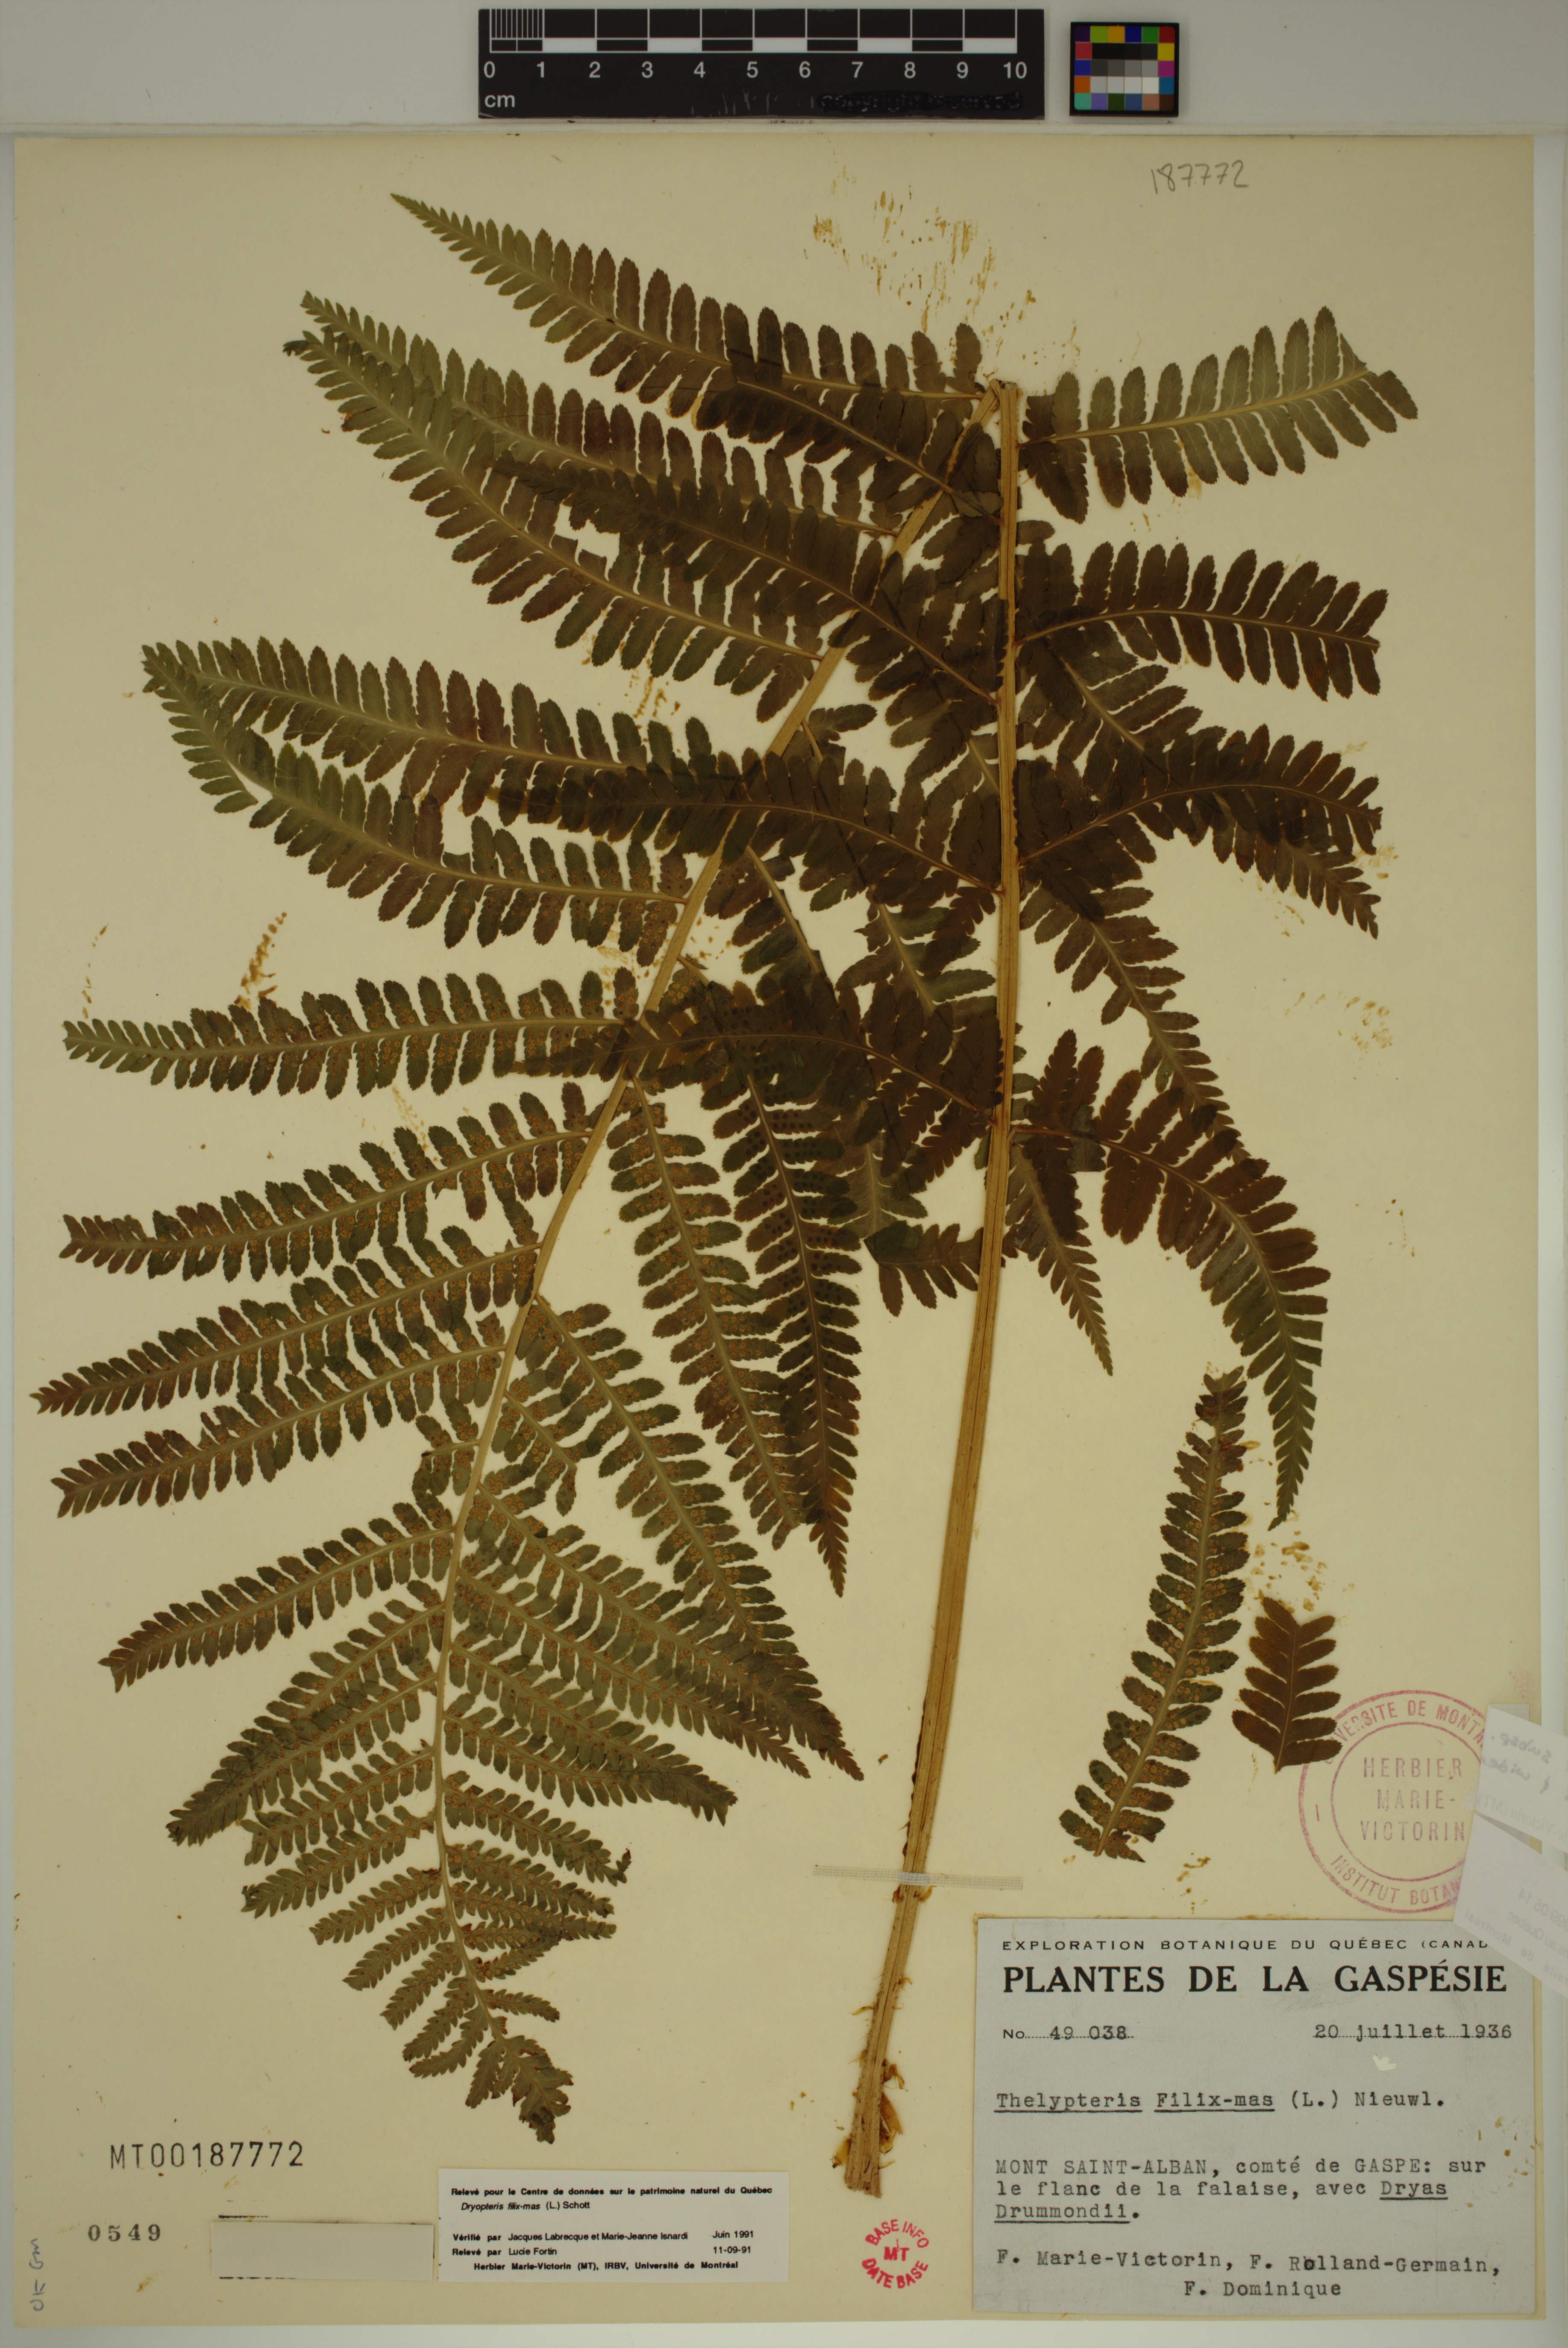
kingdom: Plantae
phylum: Tracheophyta
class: Polypodiopsida
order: Polypodiales
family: Dryopteridaceae
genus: Dryopteris
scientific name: Dryopteris filix-mas
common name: Male fern
